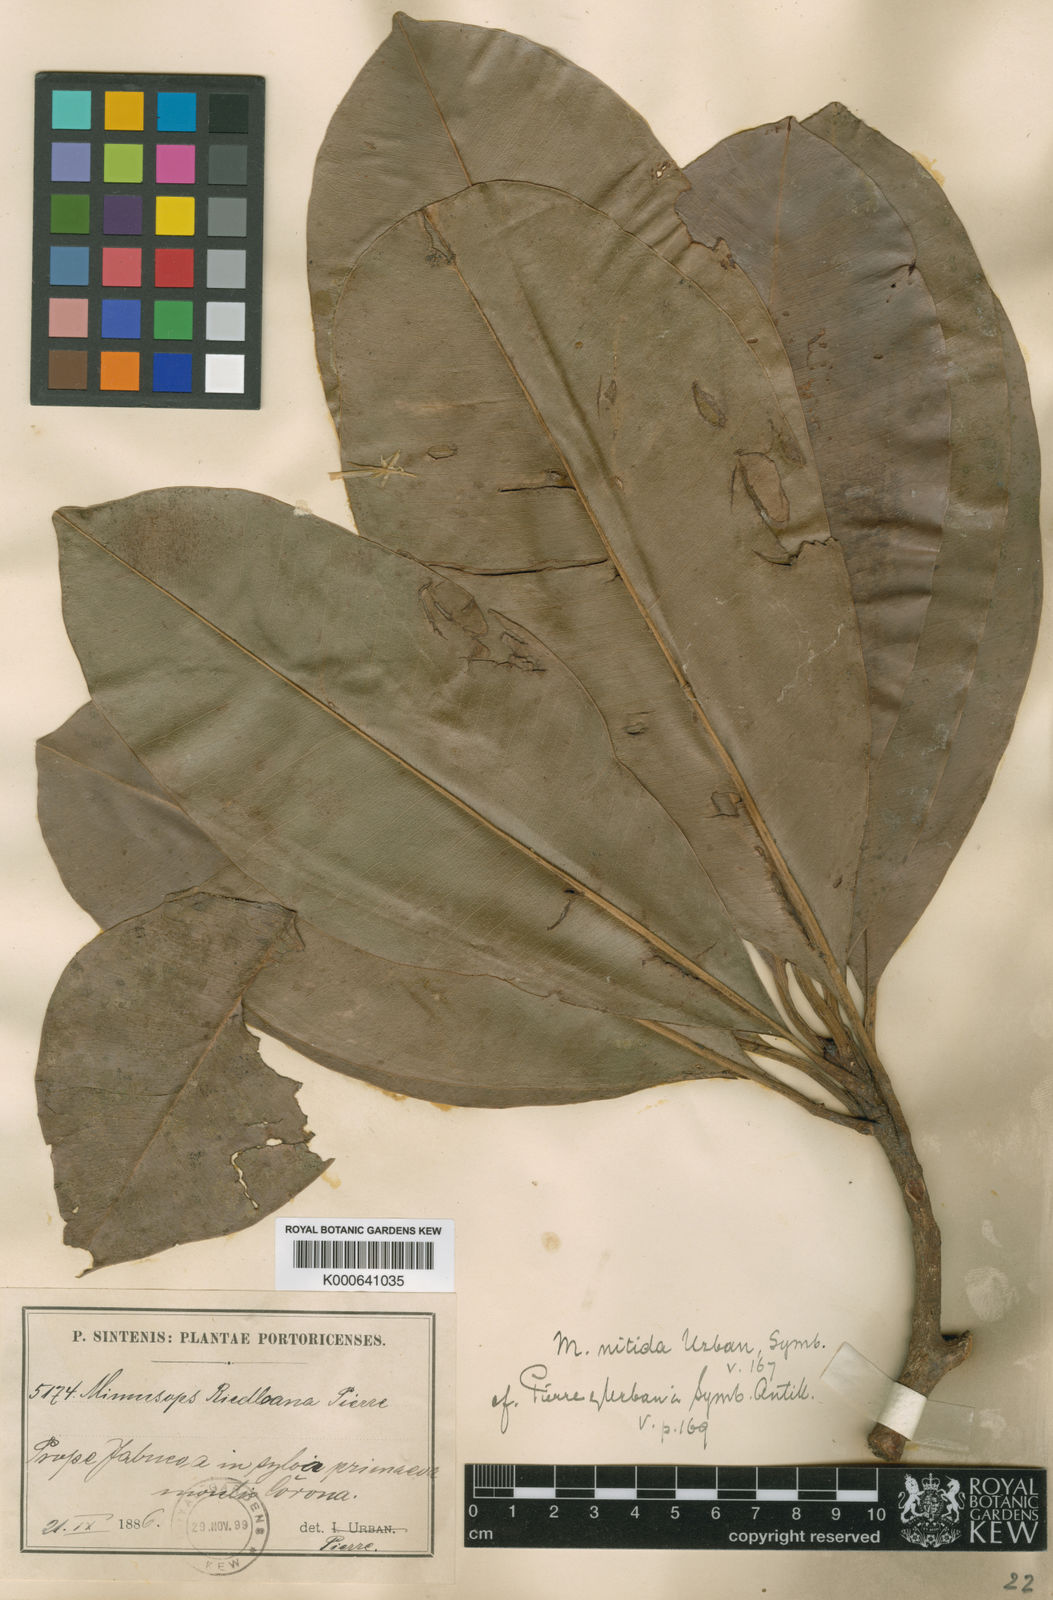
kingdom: Plantae
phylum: Tracheophyta
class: Magnoliopsida
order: Ericales
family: Sapotaceae
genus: Manilkara
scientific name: Manilkara bidentata
